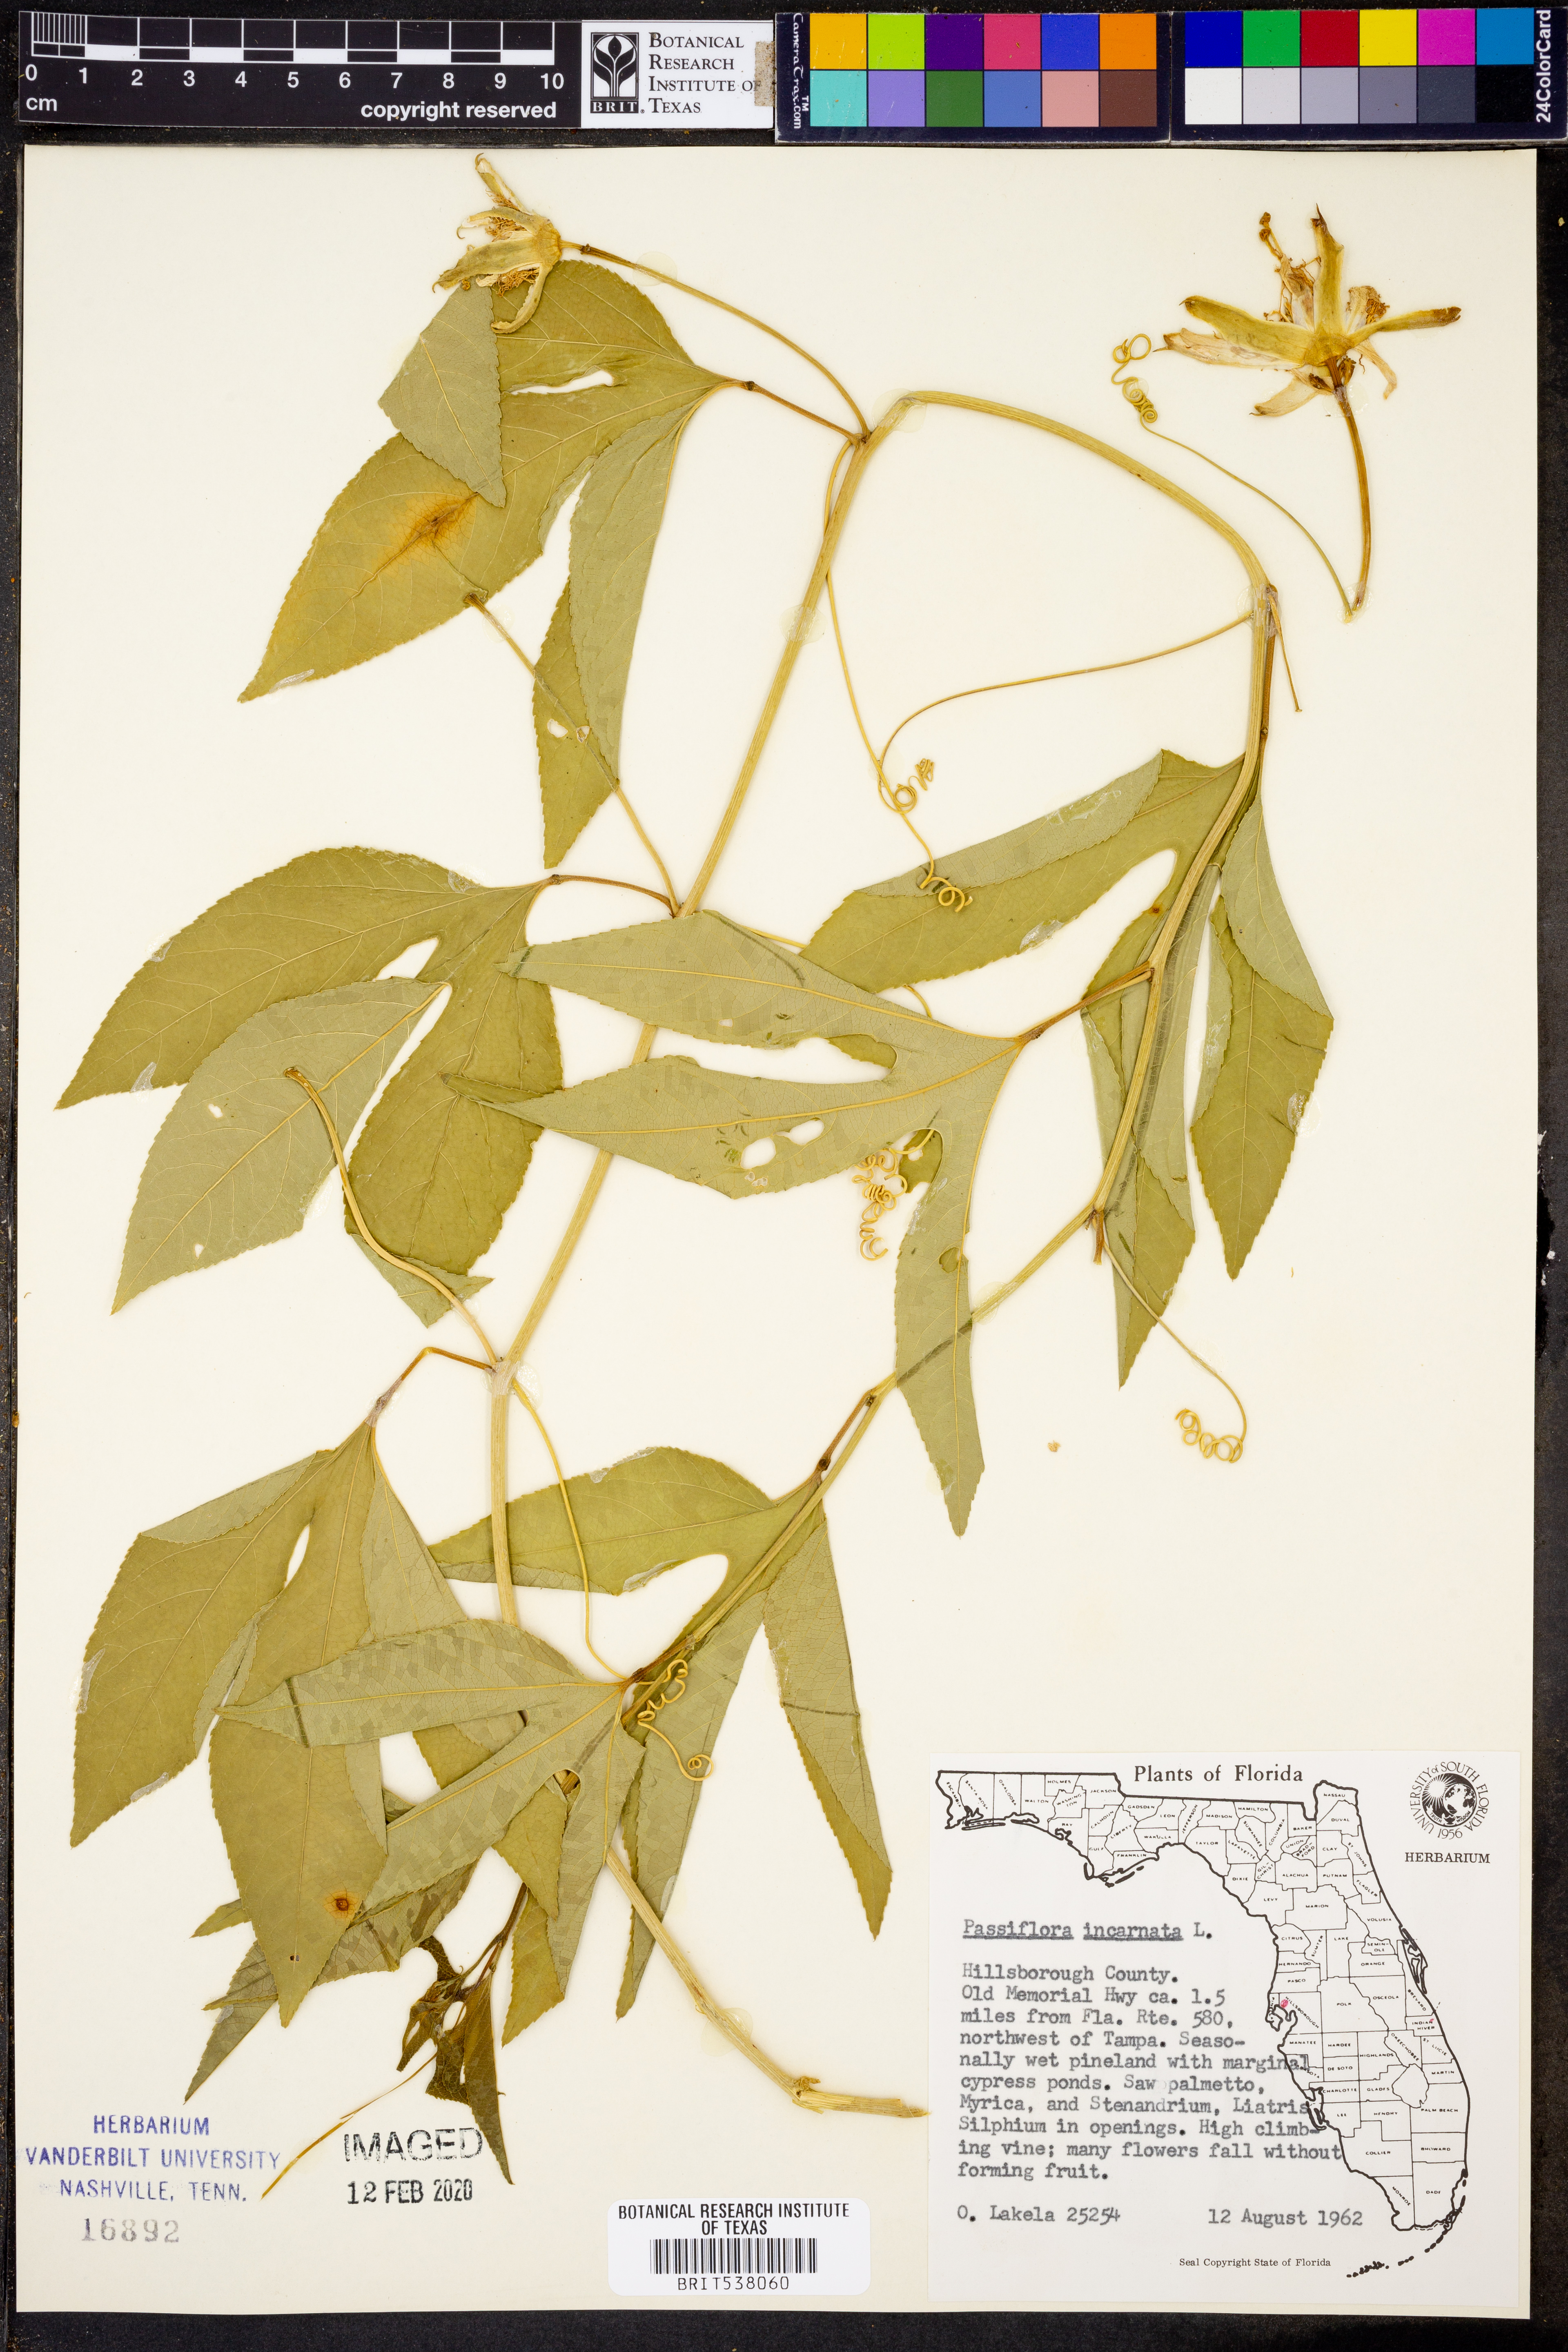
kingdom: Plantae
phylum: Tracheophyta
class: Magnoliopsida
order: Malpighiales
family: Passifloraceae
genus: Passiflora
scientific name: Passiflora incarnata
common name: Apricot-vine
